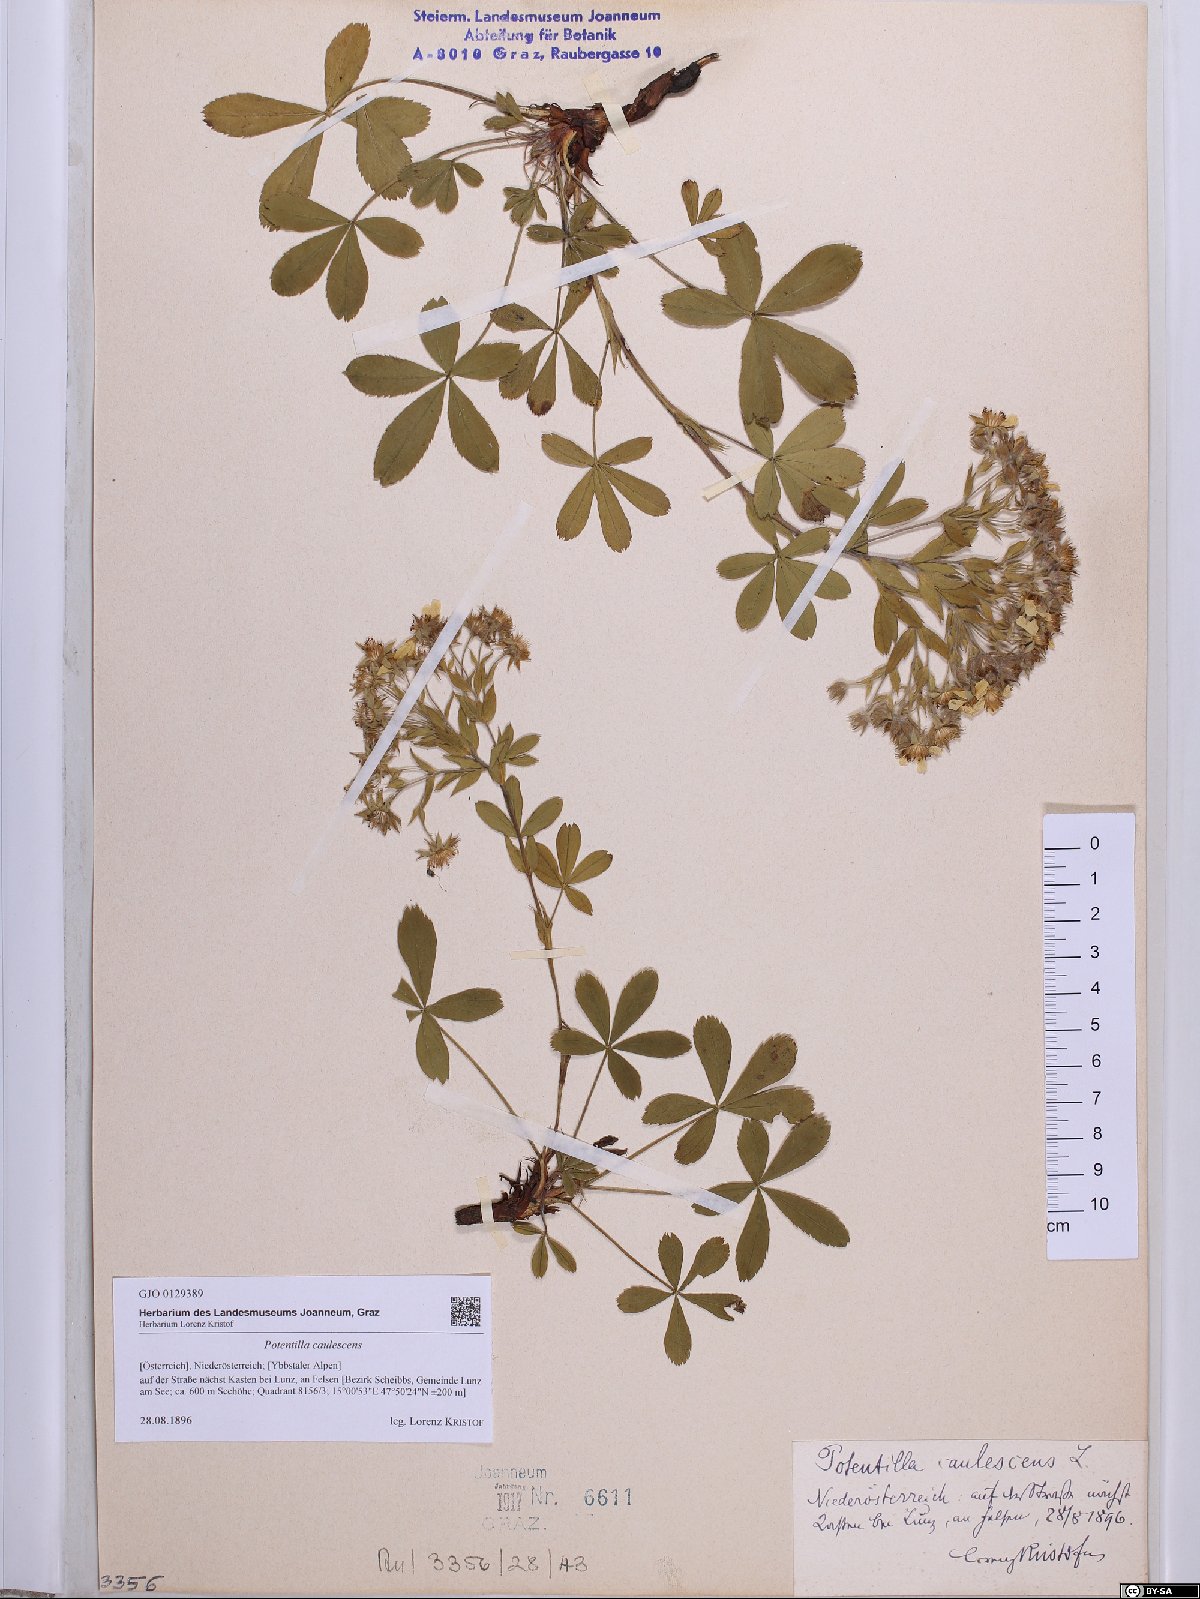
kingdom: Plantae
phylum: Tracheophyta
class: Magnoliopsida
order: Rosales
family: Rosaceae
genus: Potentilla
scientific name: Potentilla caulescens
